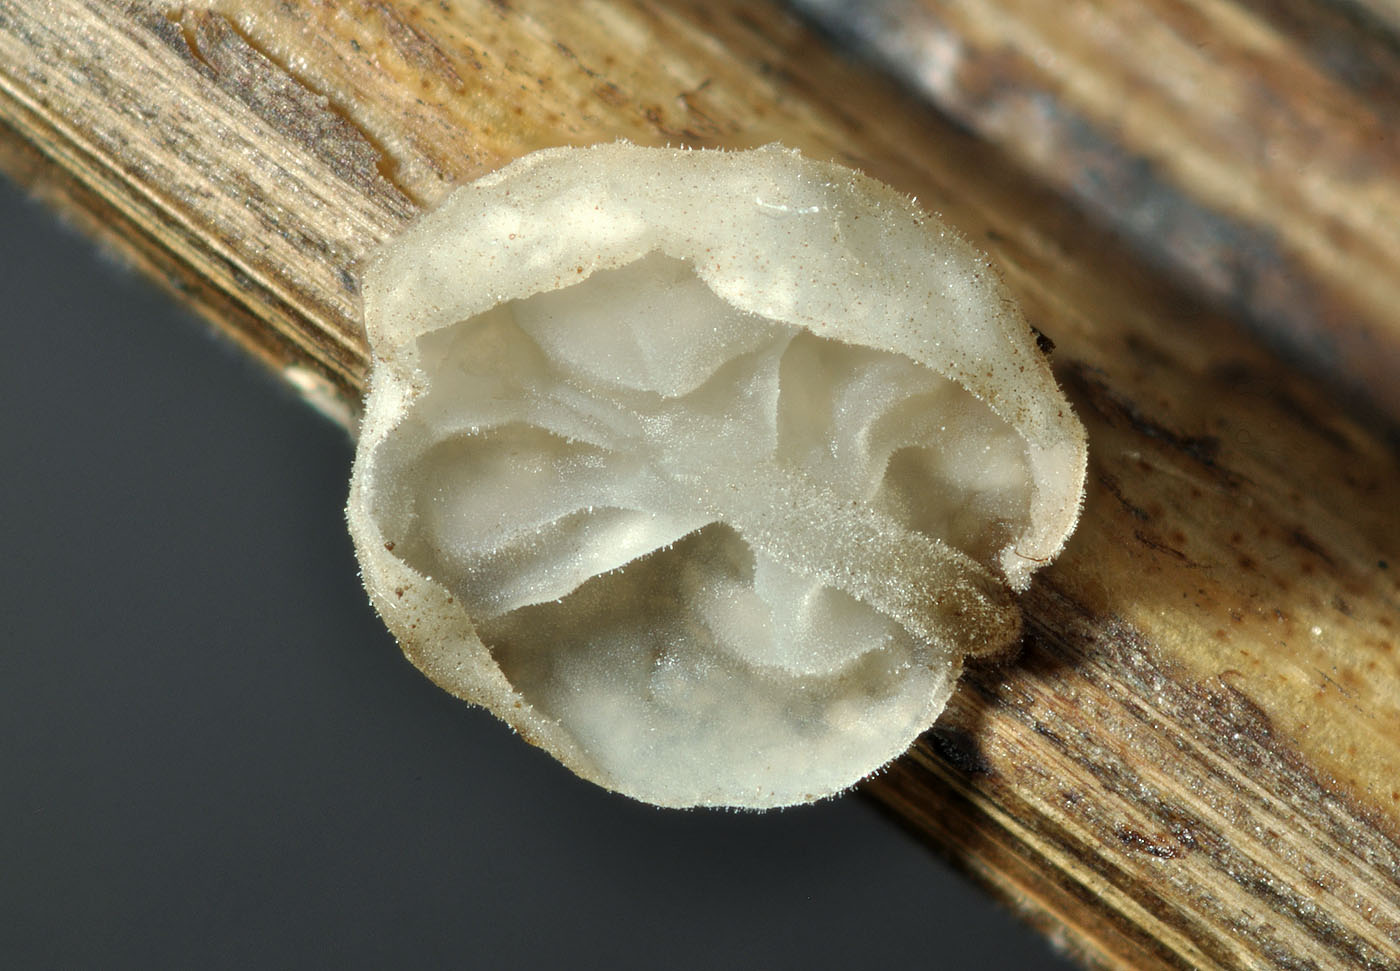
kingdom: Fungi
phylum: Basidiomycota
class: Agaricomycetes
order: Agaricales
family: Physalacriaceae
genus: Gloiocephala
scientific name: Gloiocephala
